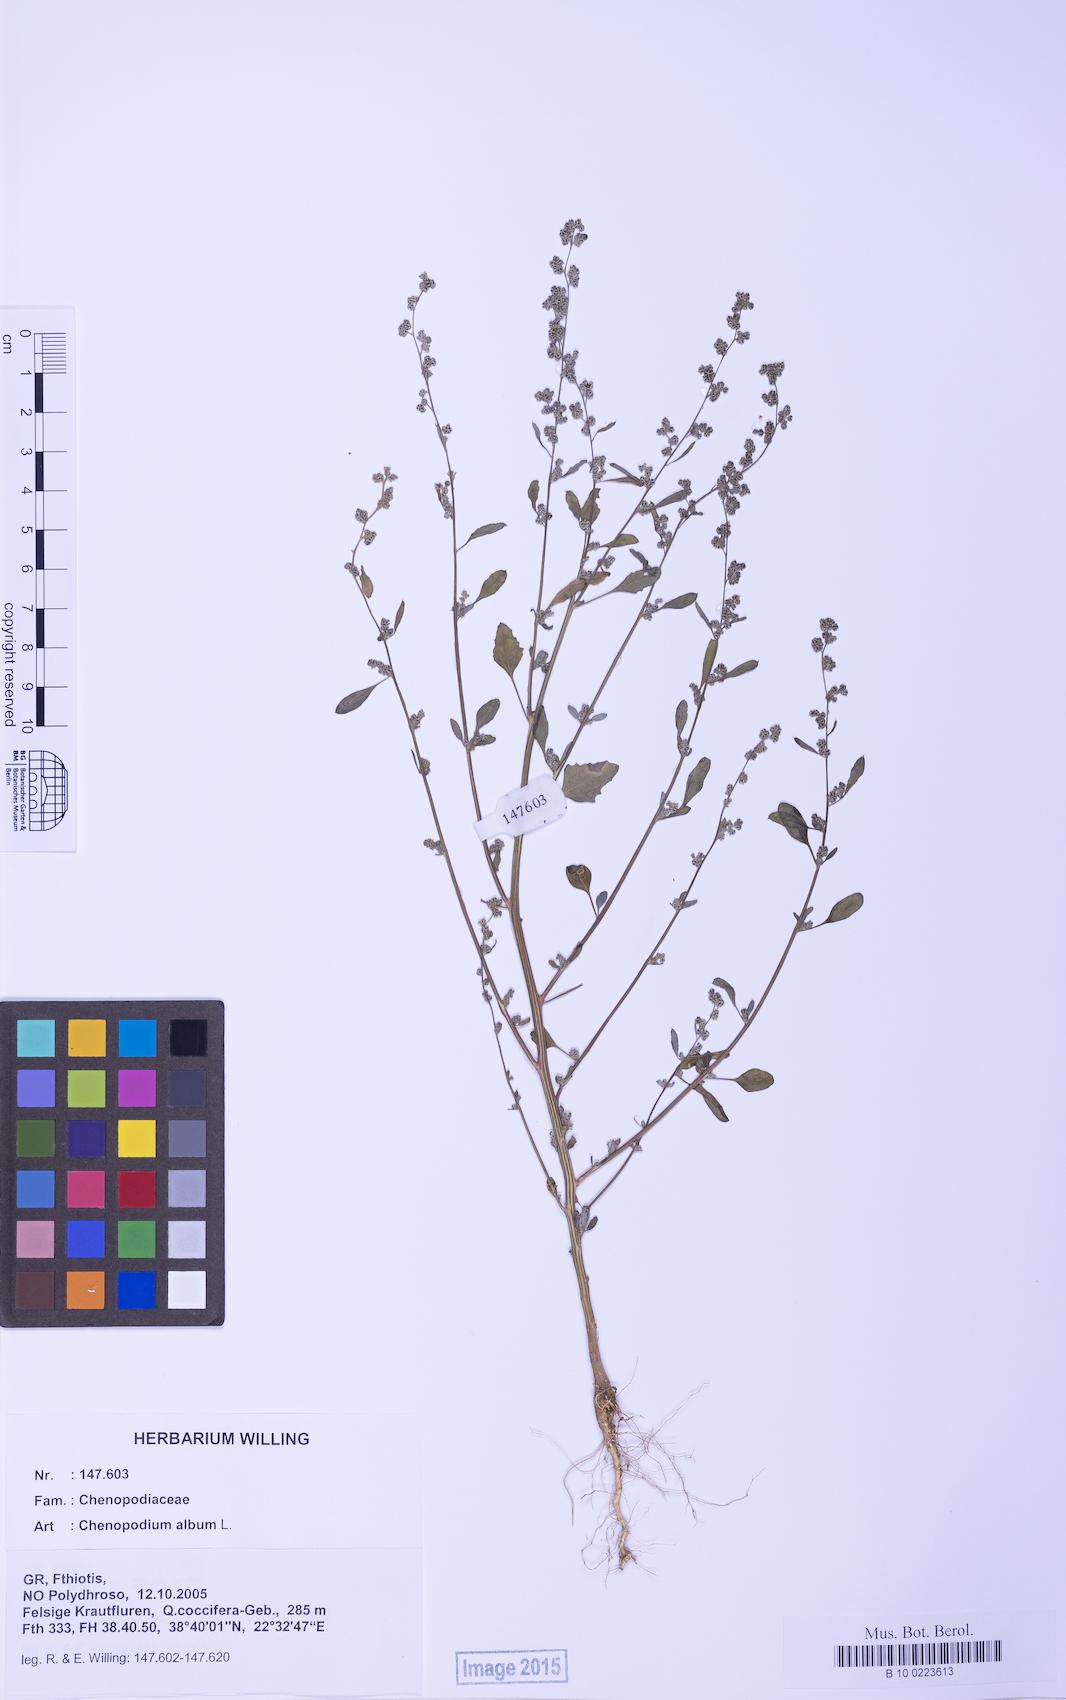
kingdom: Plantae
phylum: Tracheophyta
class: Magnoliopsida
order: Caryophyllales
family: Amaranthaceae
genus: Chenopodium
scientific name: Chenopodium album
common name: Fat-hen
